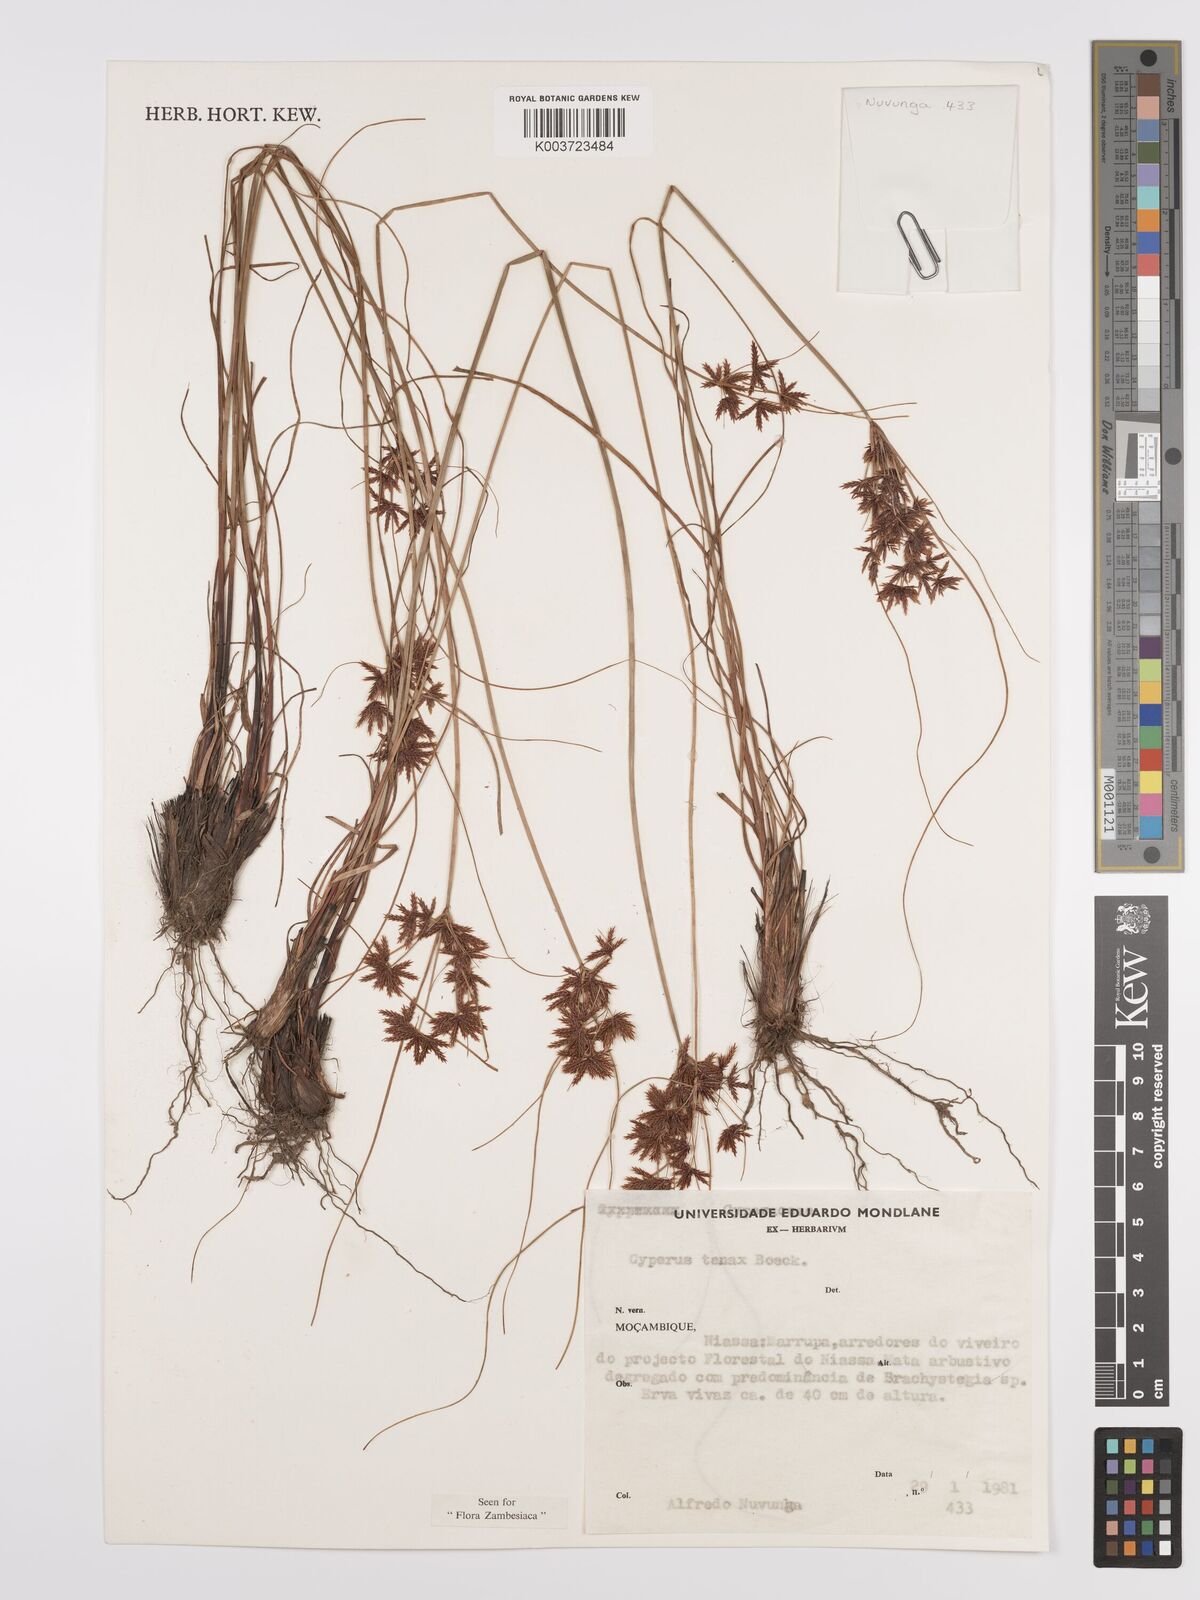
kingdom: Plantae
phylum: Tracheophyta
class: Liliopsida
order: Poales
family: Cyperaceae
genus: Cyperus
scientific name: Cyperus tenax
